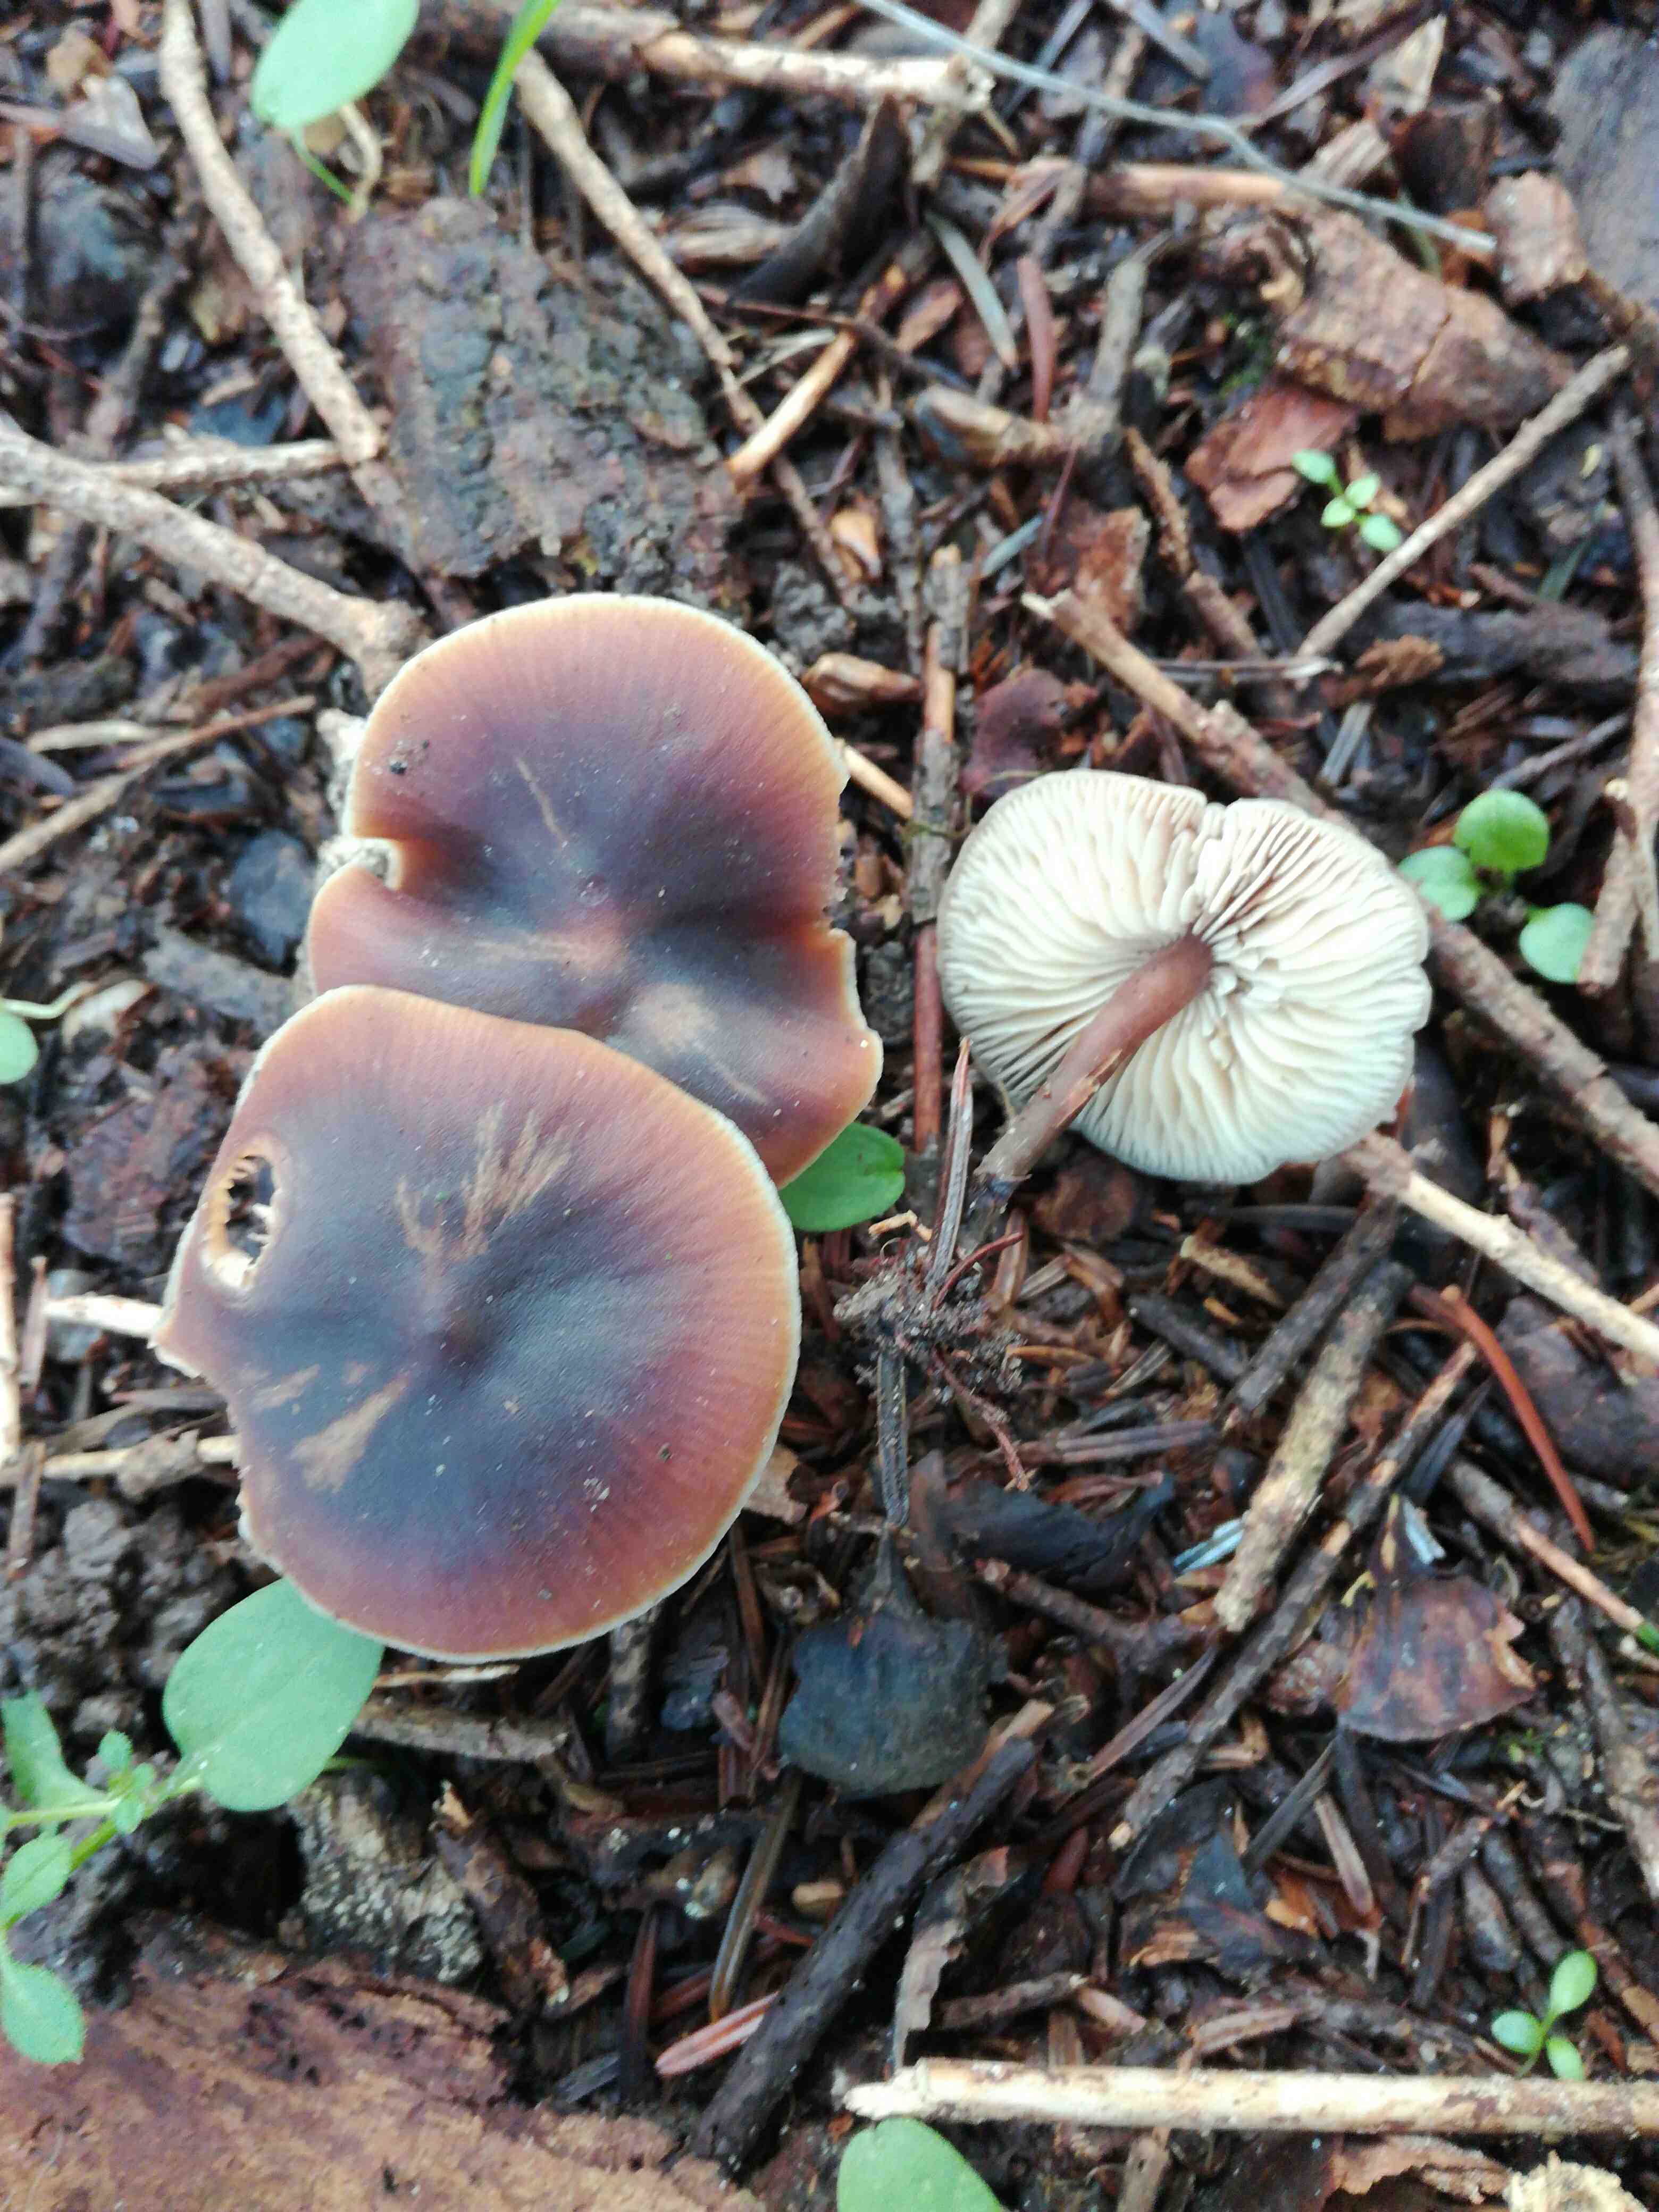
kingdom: Fungi
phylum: Basidiomycota
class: Agaricomycetes
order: Agaricales
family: Macrocystidiaceae
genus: Macrocystidia
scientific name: Macrocystidia cucumis
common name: agurkehat
